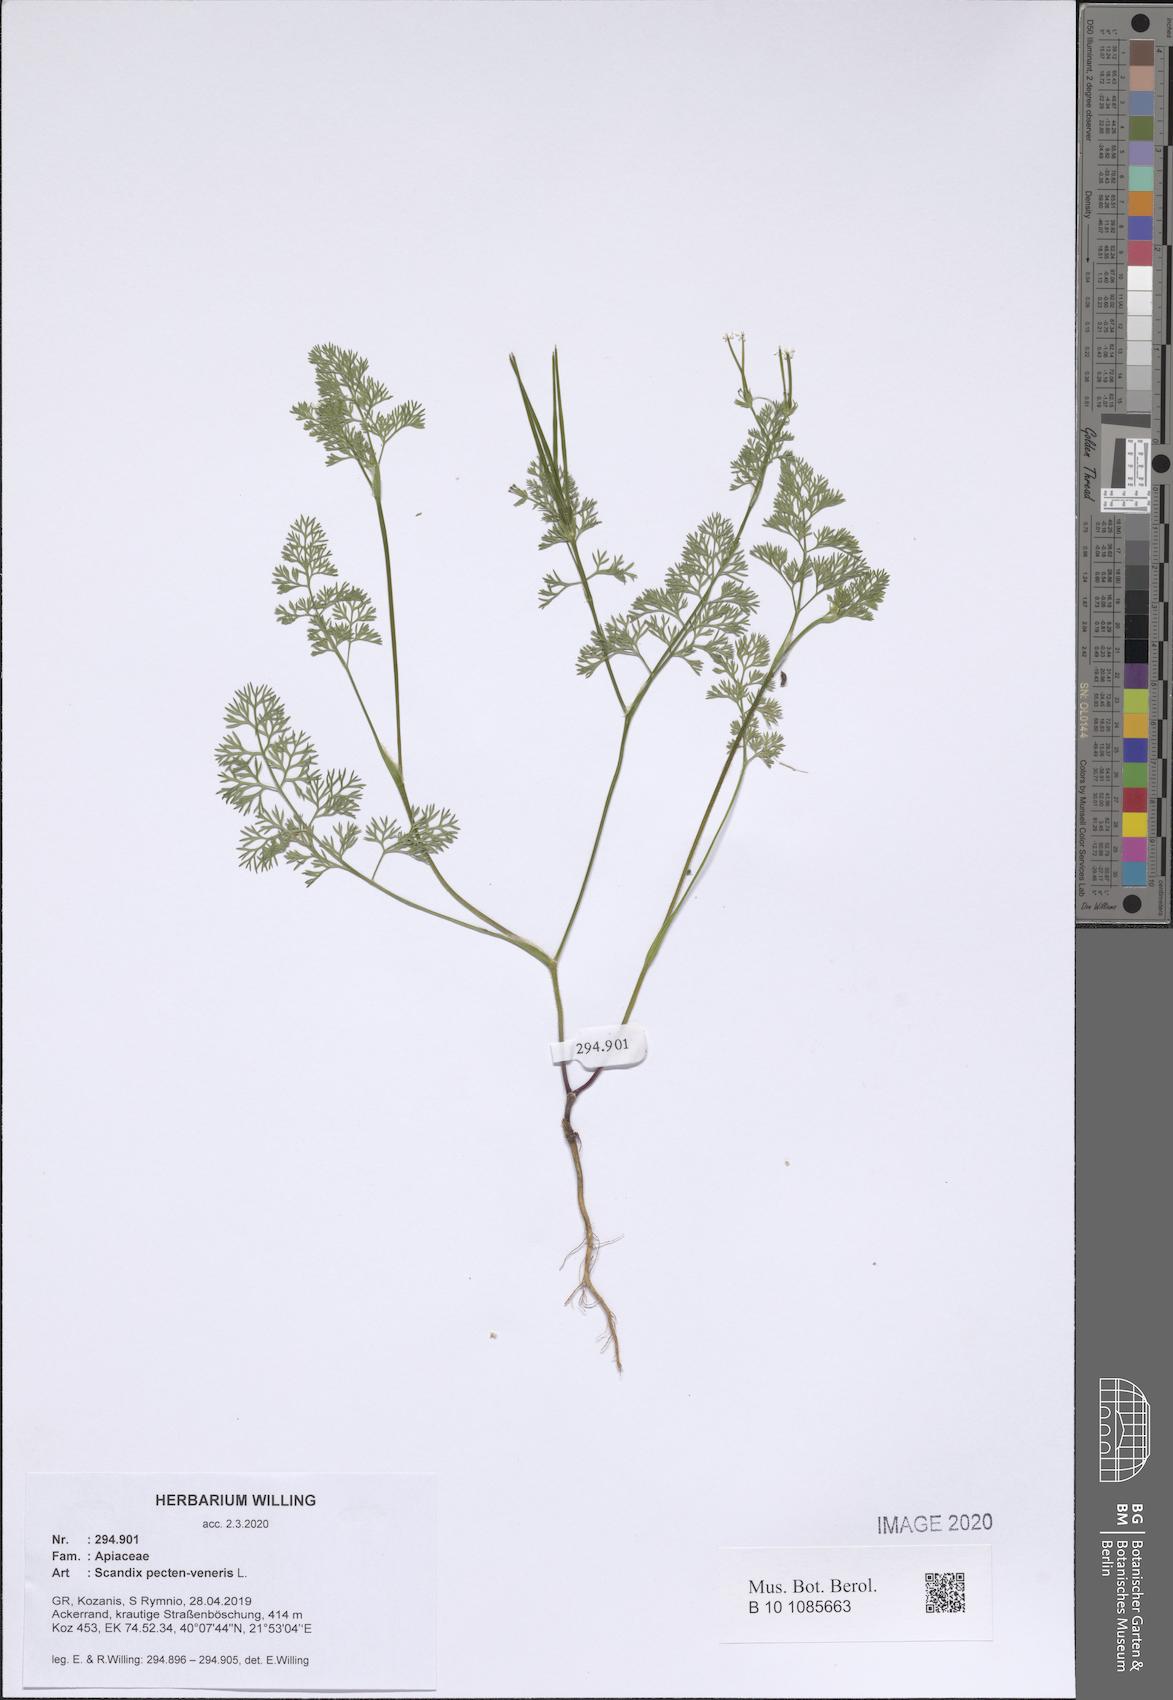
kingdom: Plantae
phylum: Tracheophyta
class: Magnoliopsida
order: Apiales
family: Apiaceae
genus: Scandix
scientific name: Scandix pecten-veneris
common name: Shepherd's-needle
